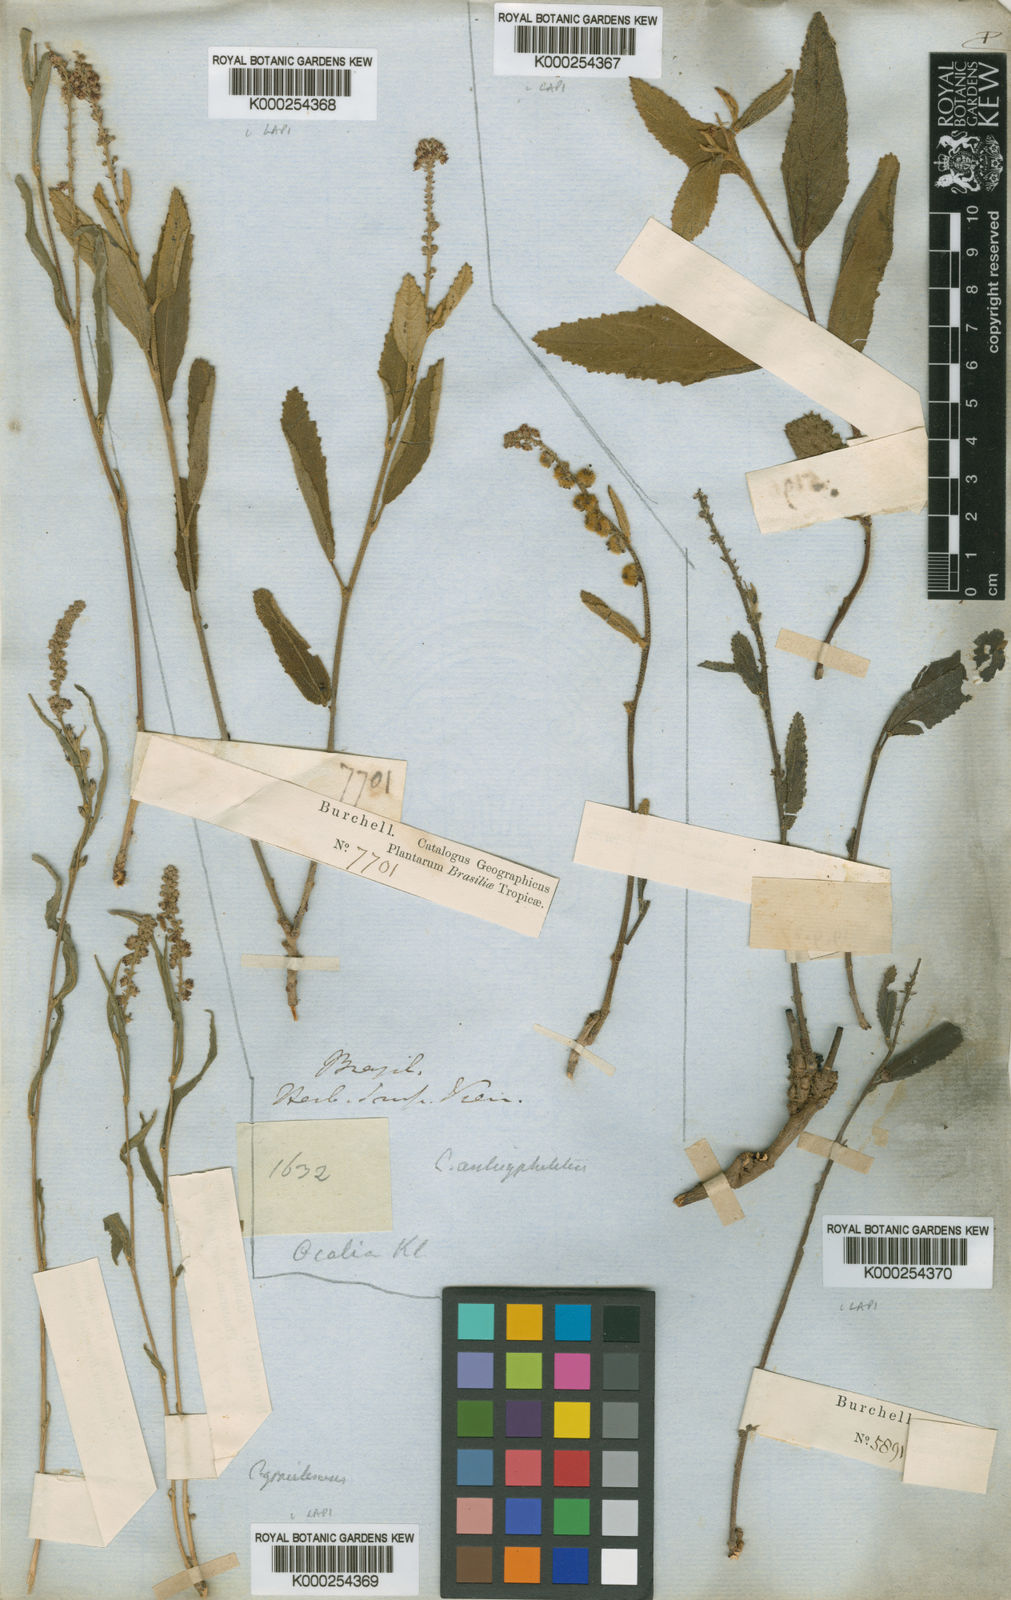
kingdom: Plantae
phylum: Tracheophyta
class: Magnoliopsida
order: Malpighiales
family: Euphorbiaceae
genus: Croton
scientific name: Croton
